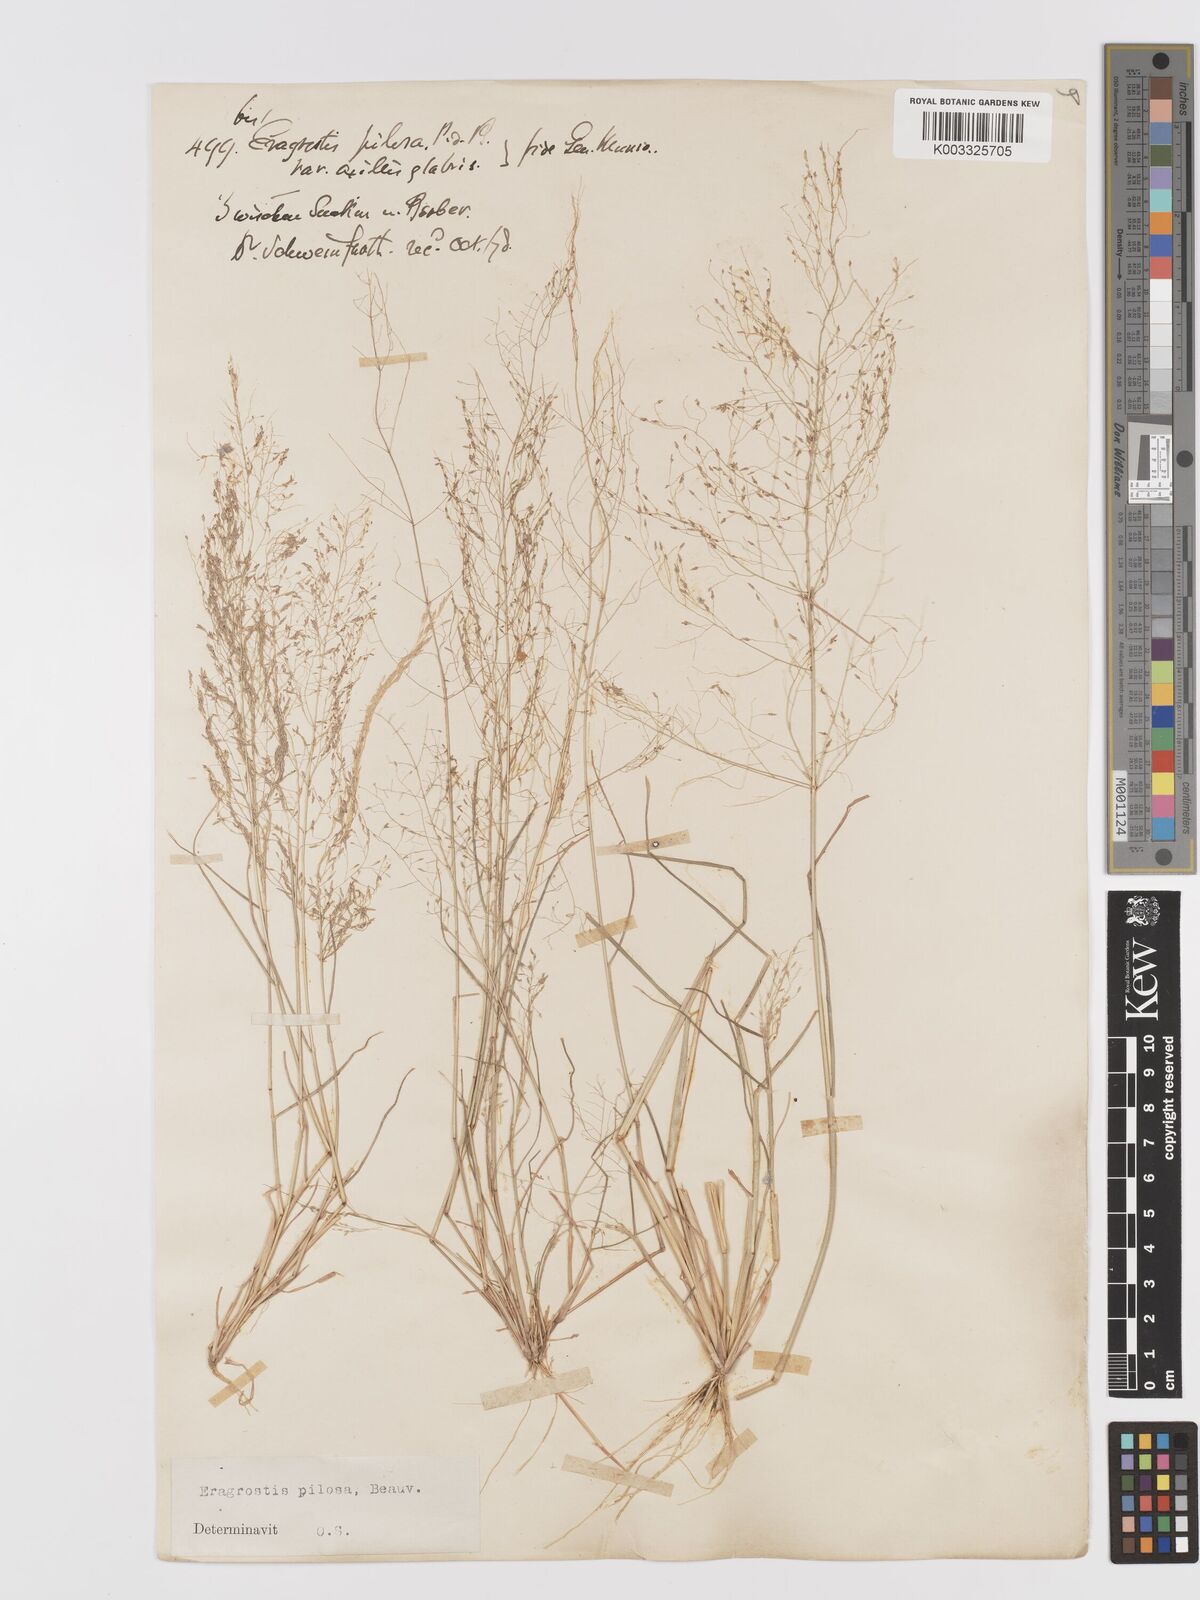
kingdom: Plantae
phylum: Tracheophyta
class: Liliopsida
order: Poales
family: Poaceae
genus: Eragrostis
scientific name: Eragrostis pilosa
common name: Indian lovegrass
